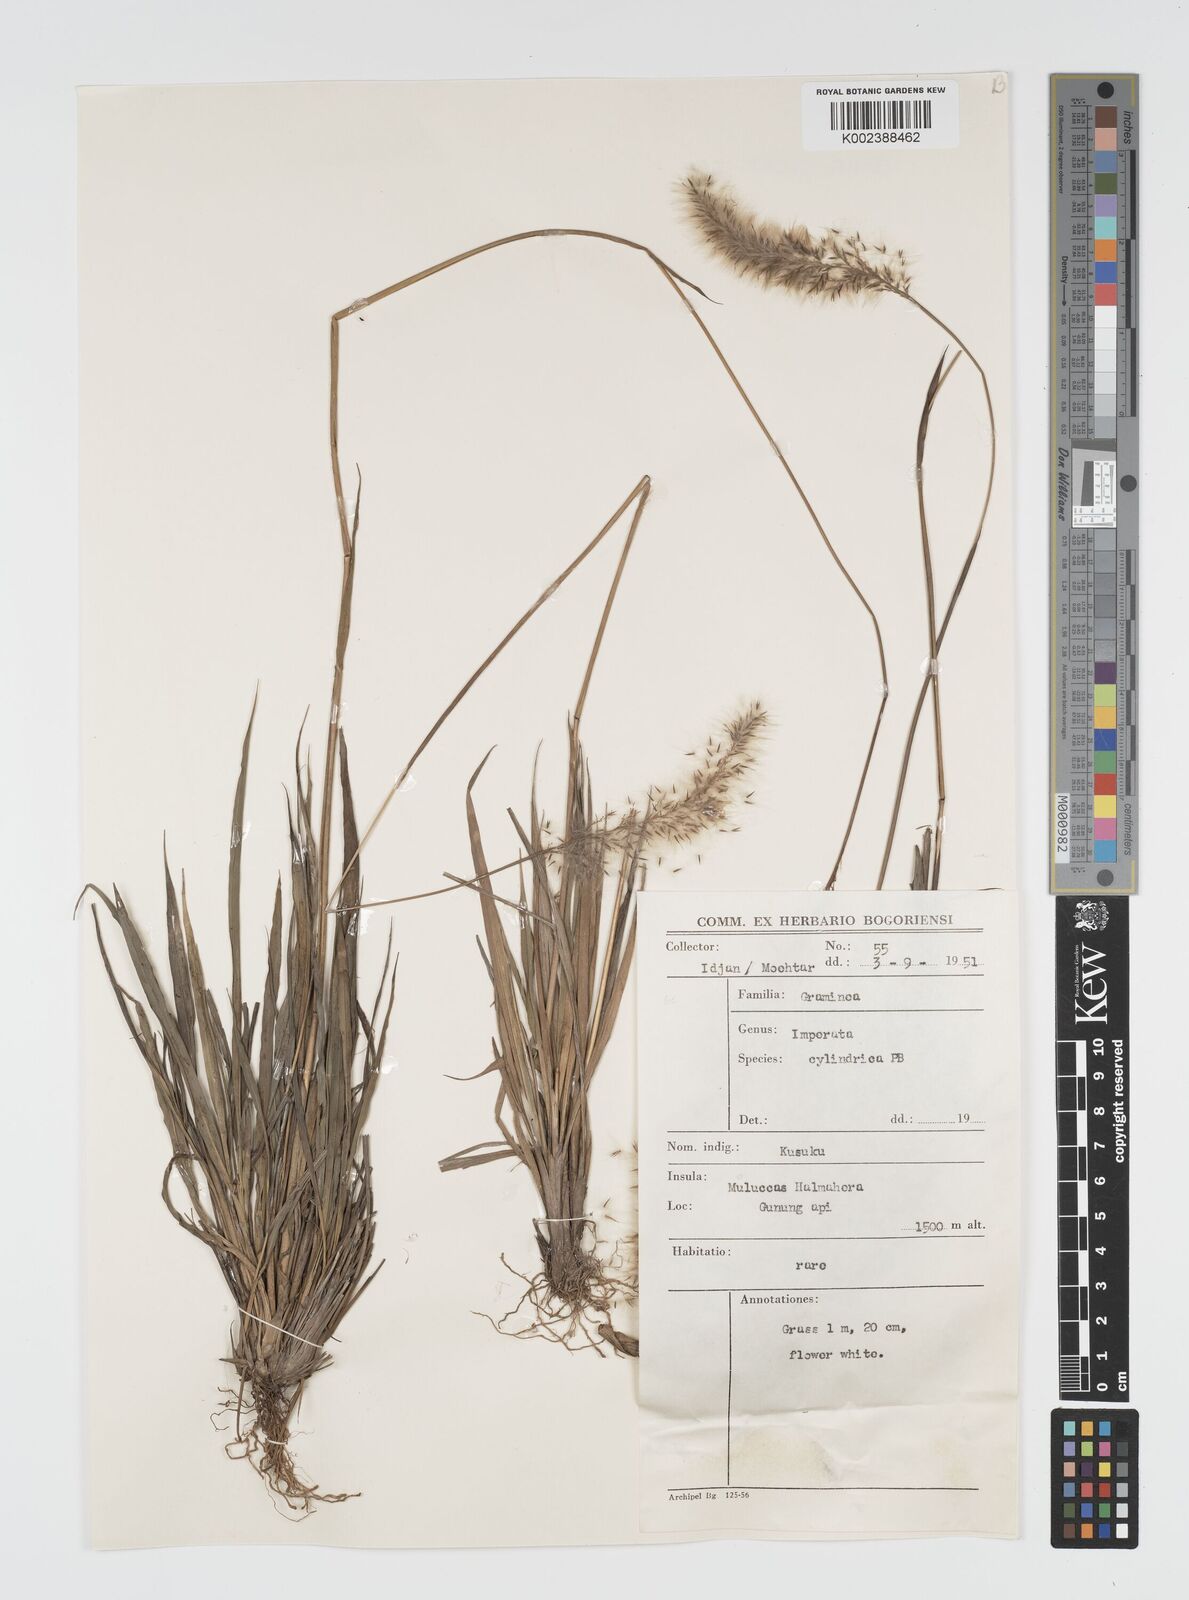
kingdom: Plantae
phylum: Tracheophyta
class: Liliopsida
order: Poales
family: Poaceae
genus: Imperata
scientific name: Imperata cylindrica
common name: Cogongrass
